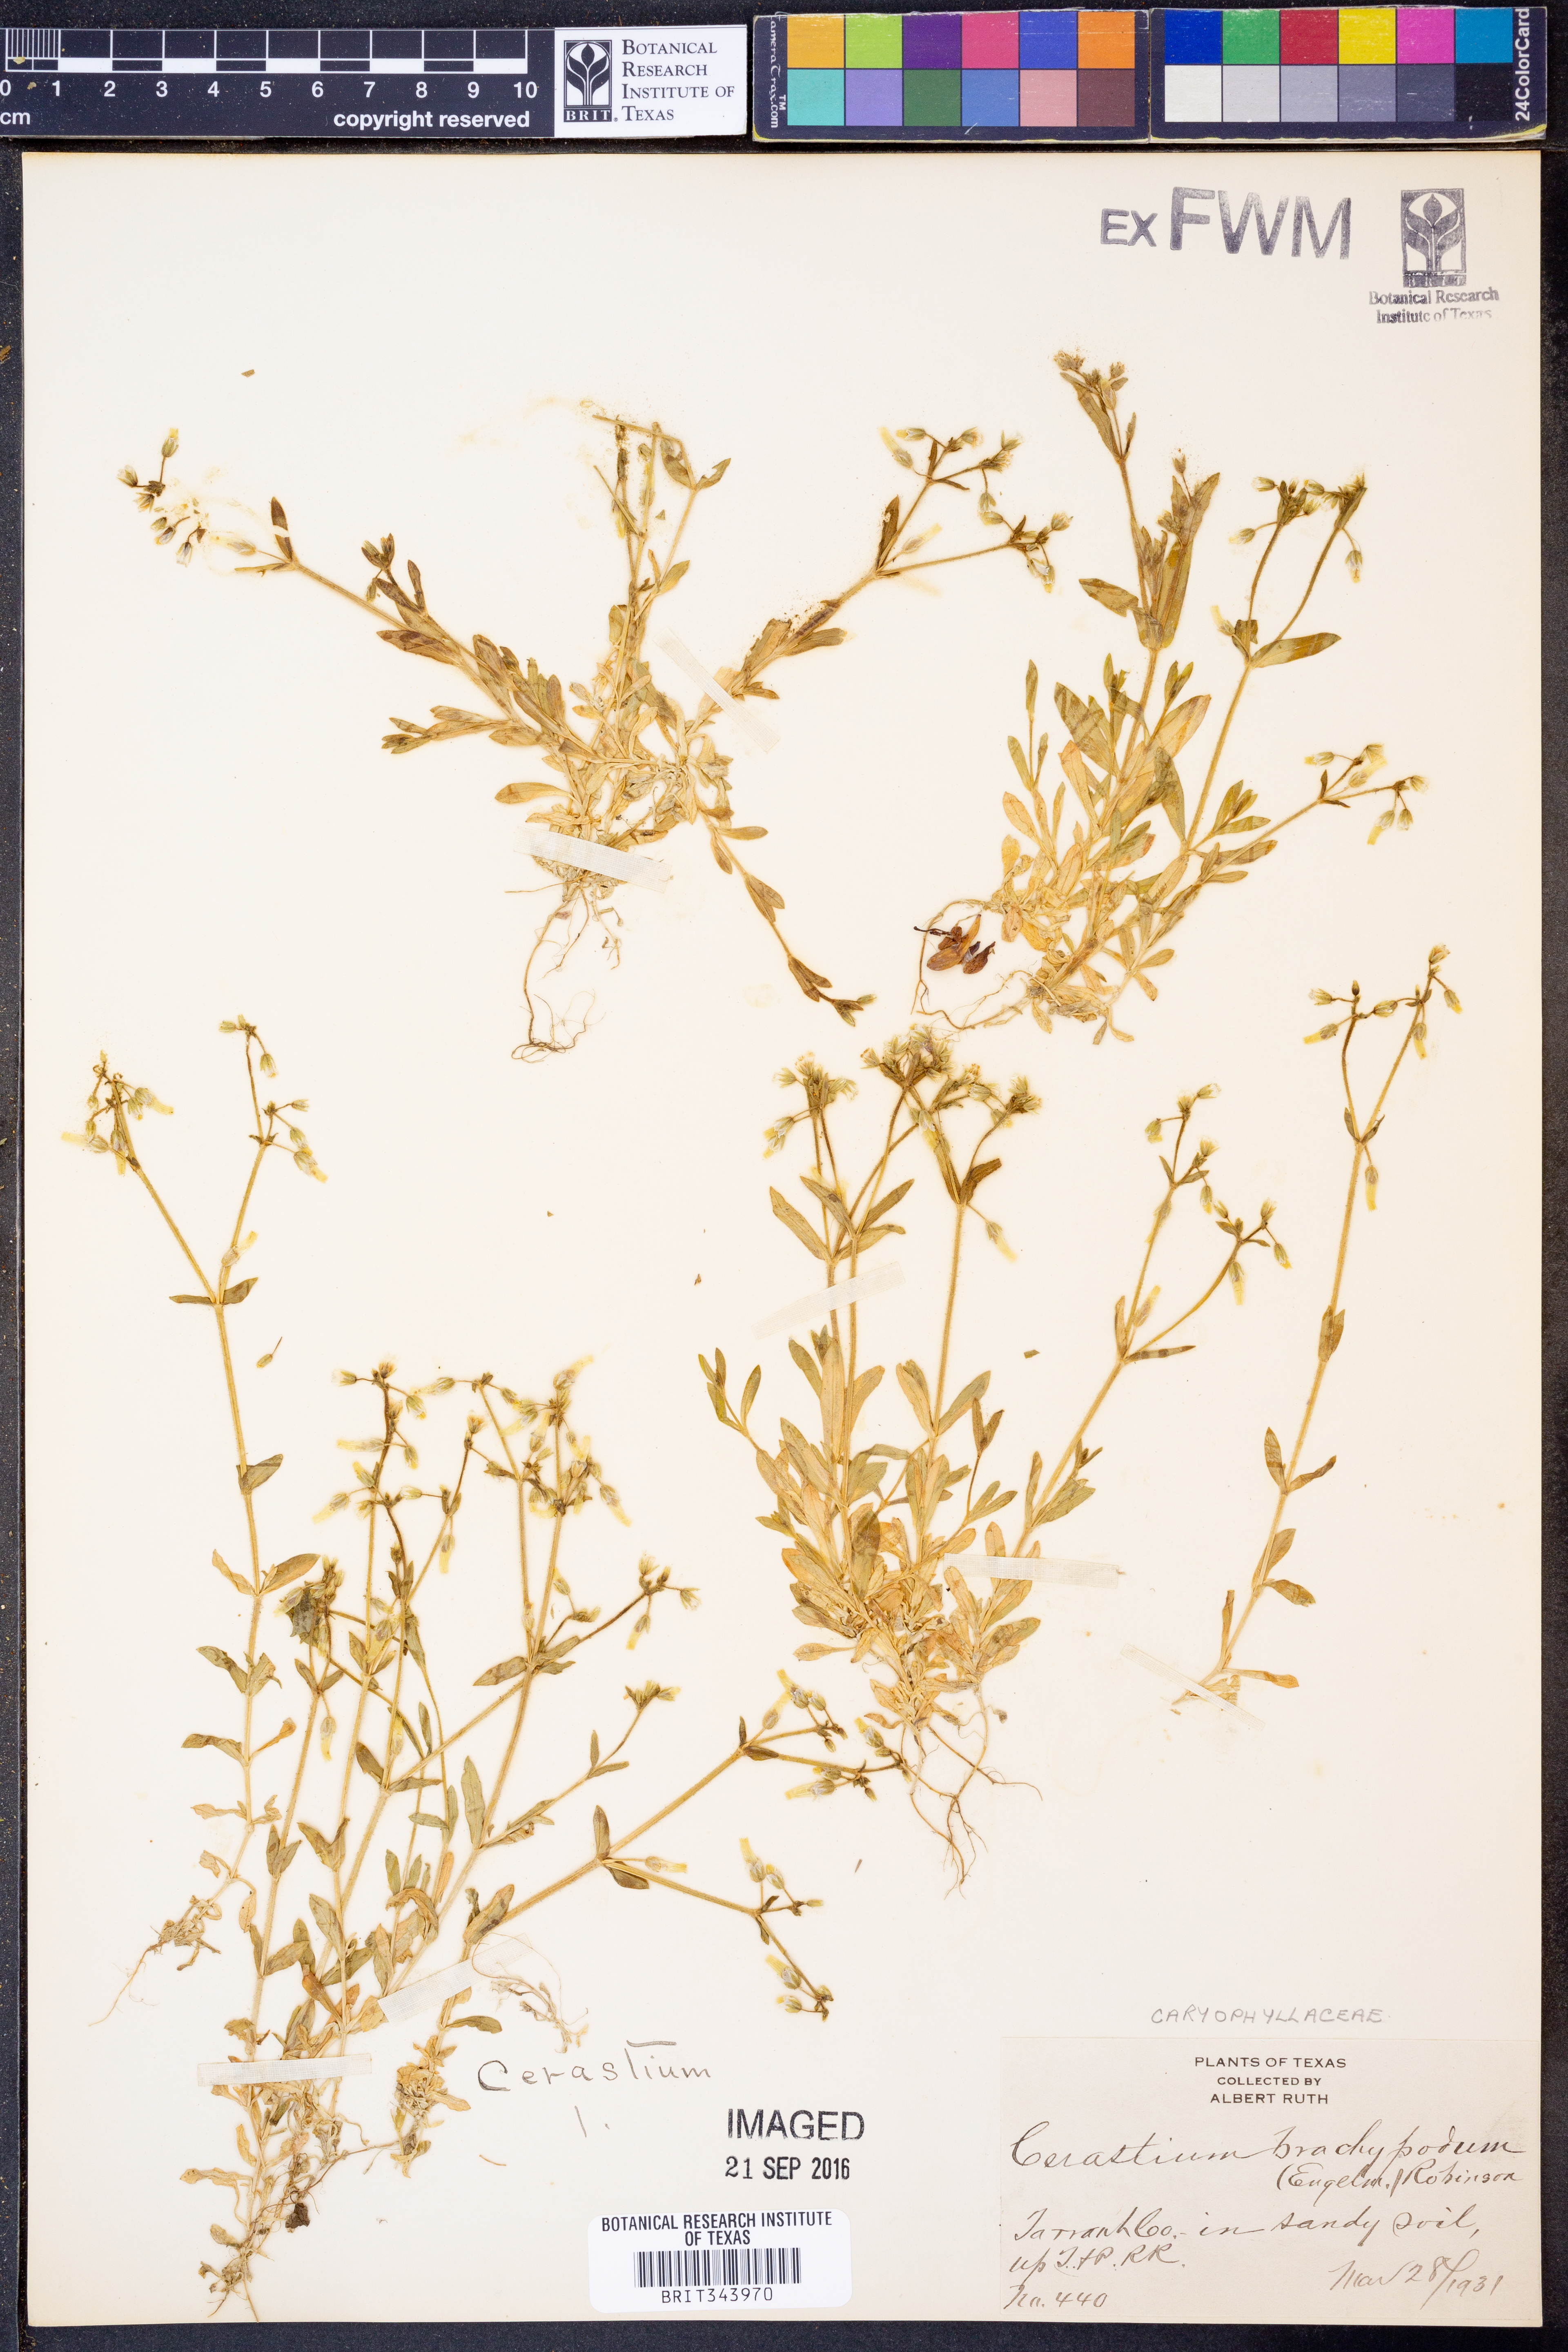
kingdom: Plantae
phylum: Tracheophyta
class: Magnoliopsida
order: Caryophyllales
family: Caryophyllaceae
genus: Cerastium
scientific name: Cerastium brachypodum
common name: Short-pedicelled nodding chickweed
